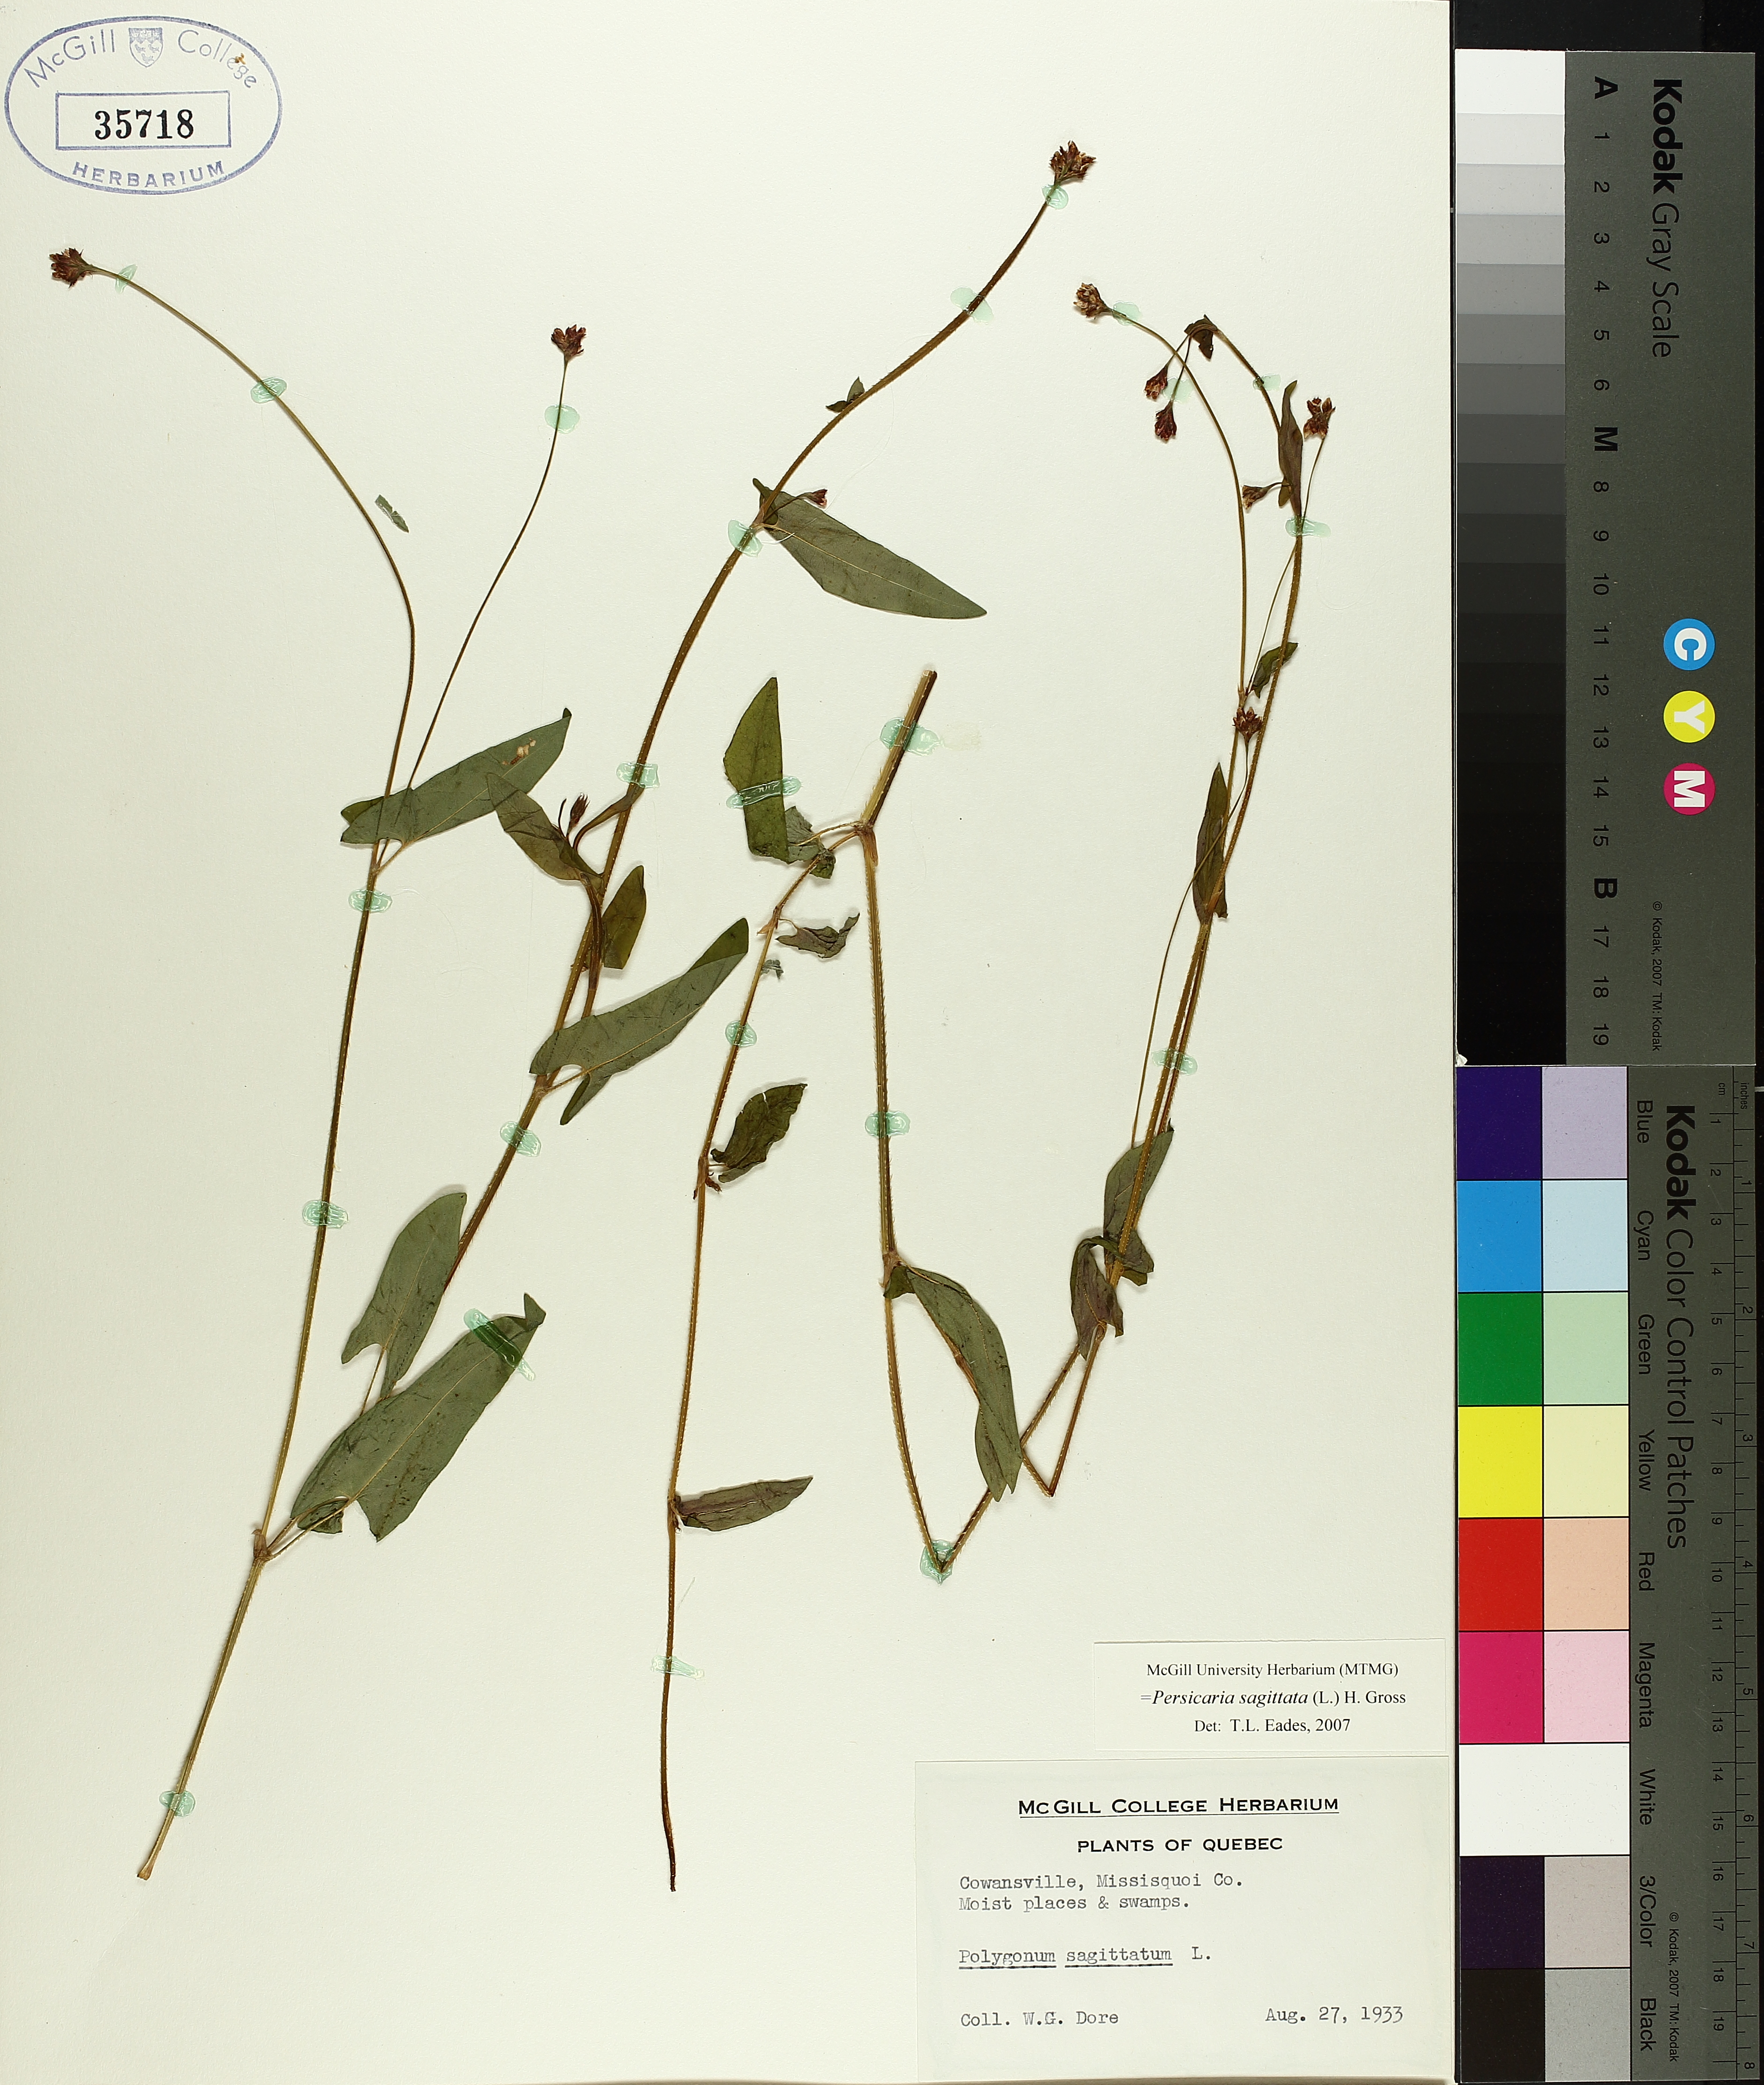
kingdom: Plantae
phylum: Tracheophyta
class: Magnoliopsida
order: Caryophyllales
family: Polygonaceae
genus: Persicaria
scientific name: Persicaria sagittata
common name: American tearthumb
